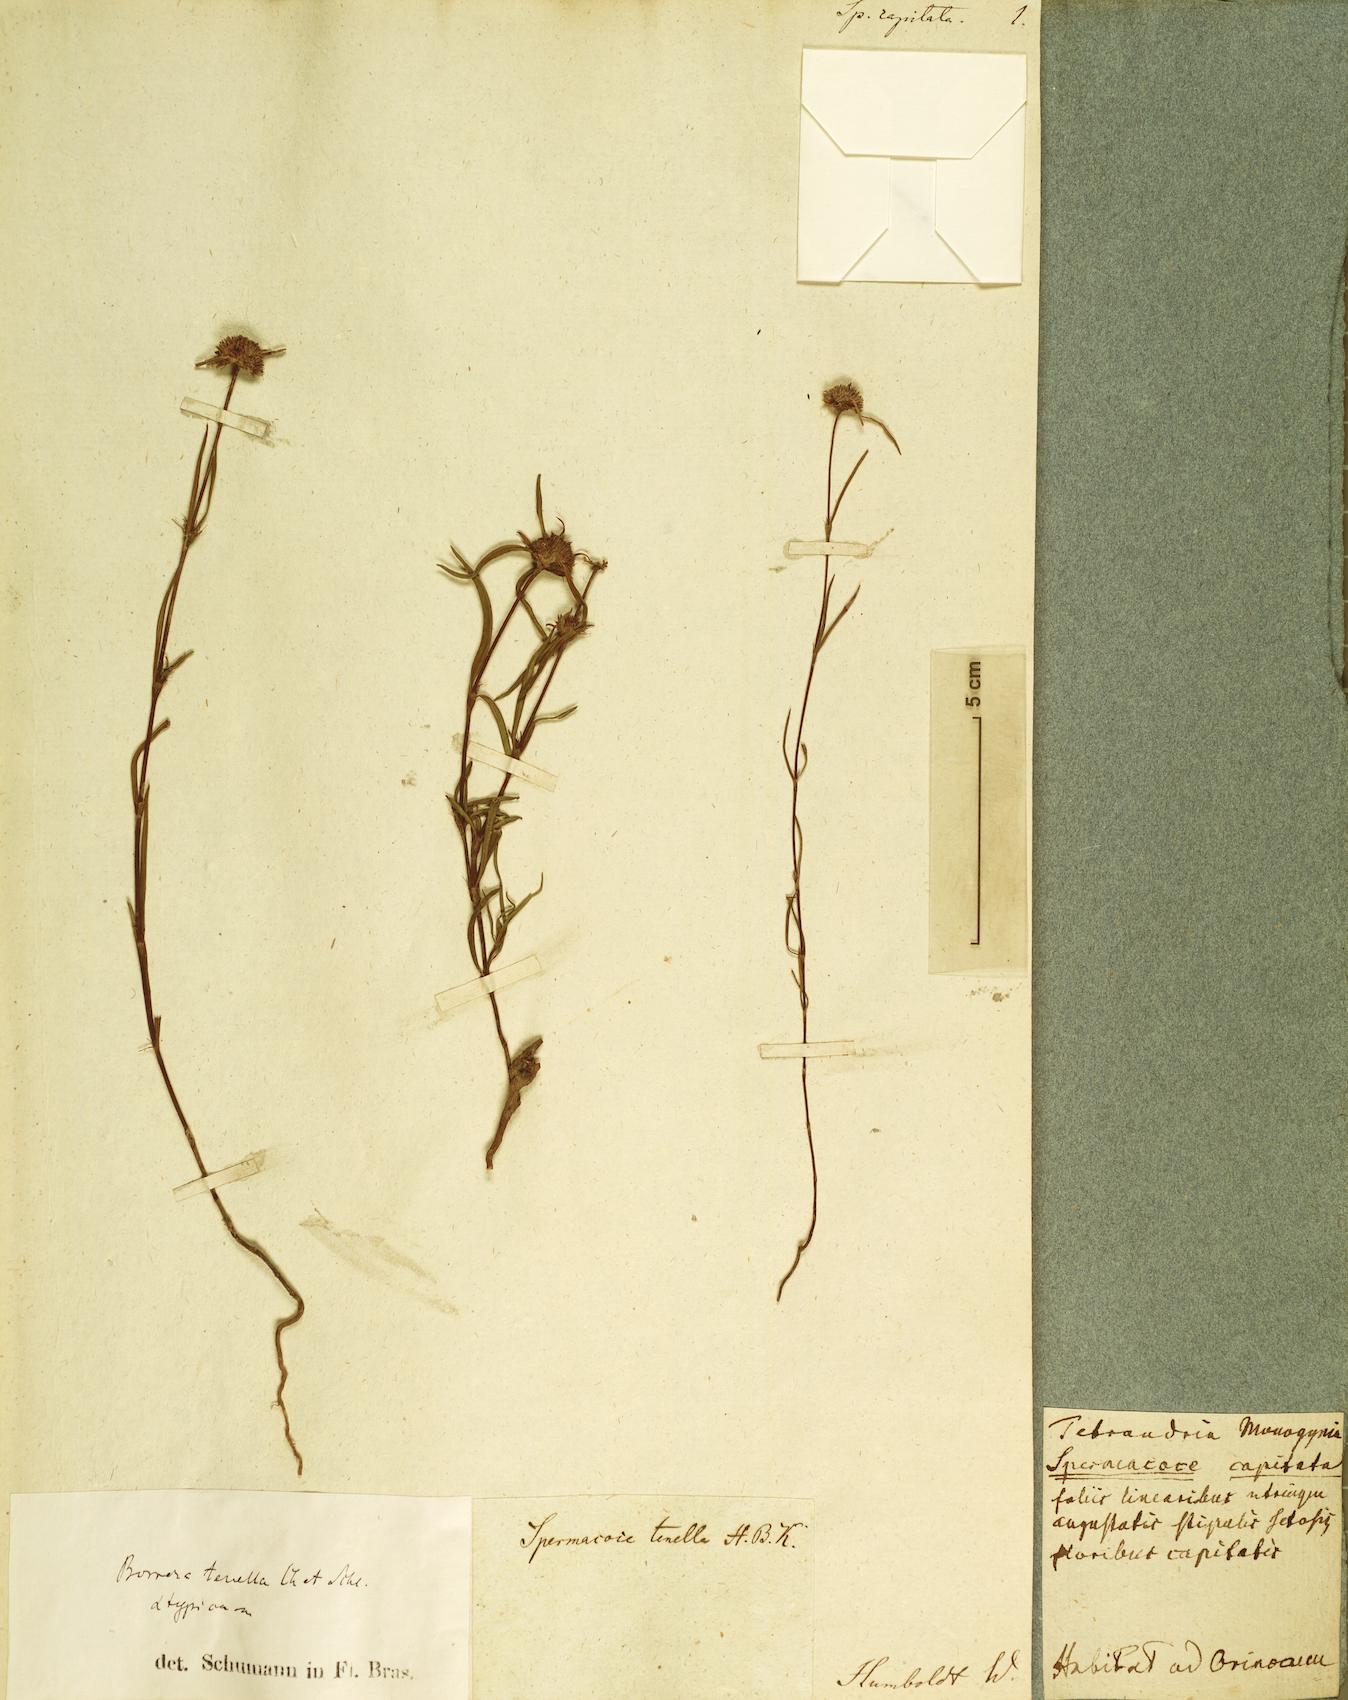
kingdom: Plantae
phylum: Tracheophyta
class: Magnoliopsida
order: Gentianales
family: Rubiaceae
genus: Spermacoce
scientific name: Spermacoce capitata
